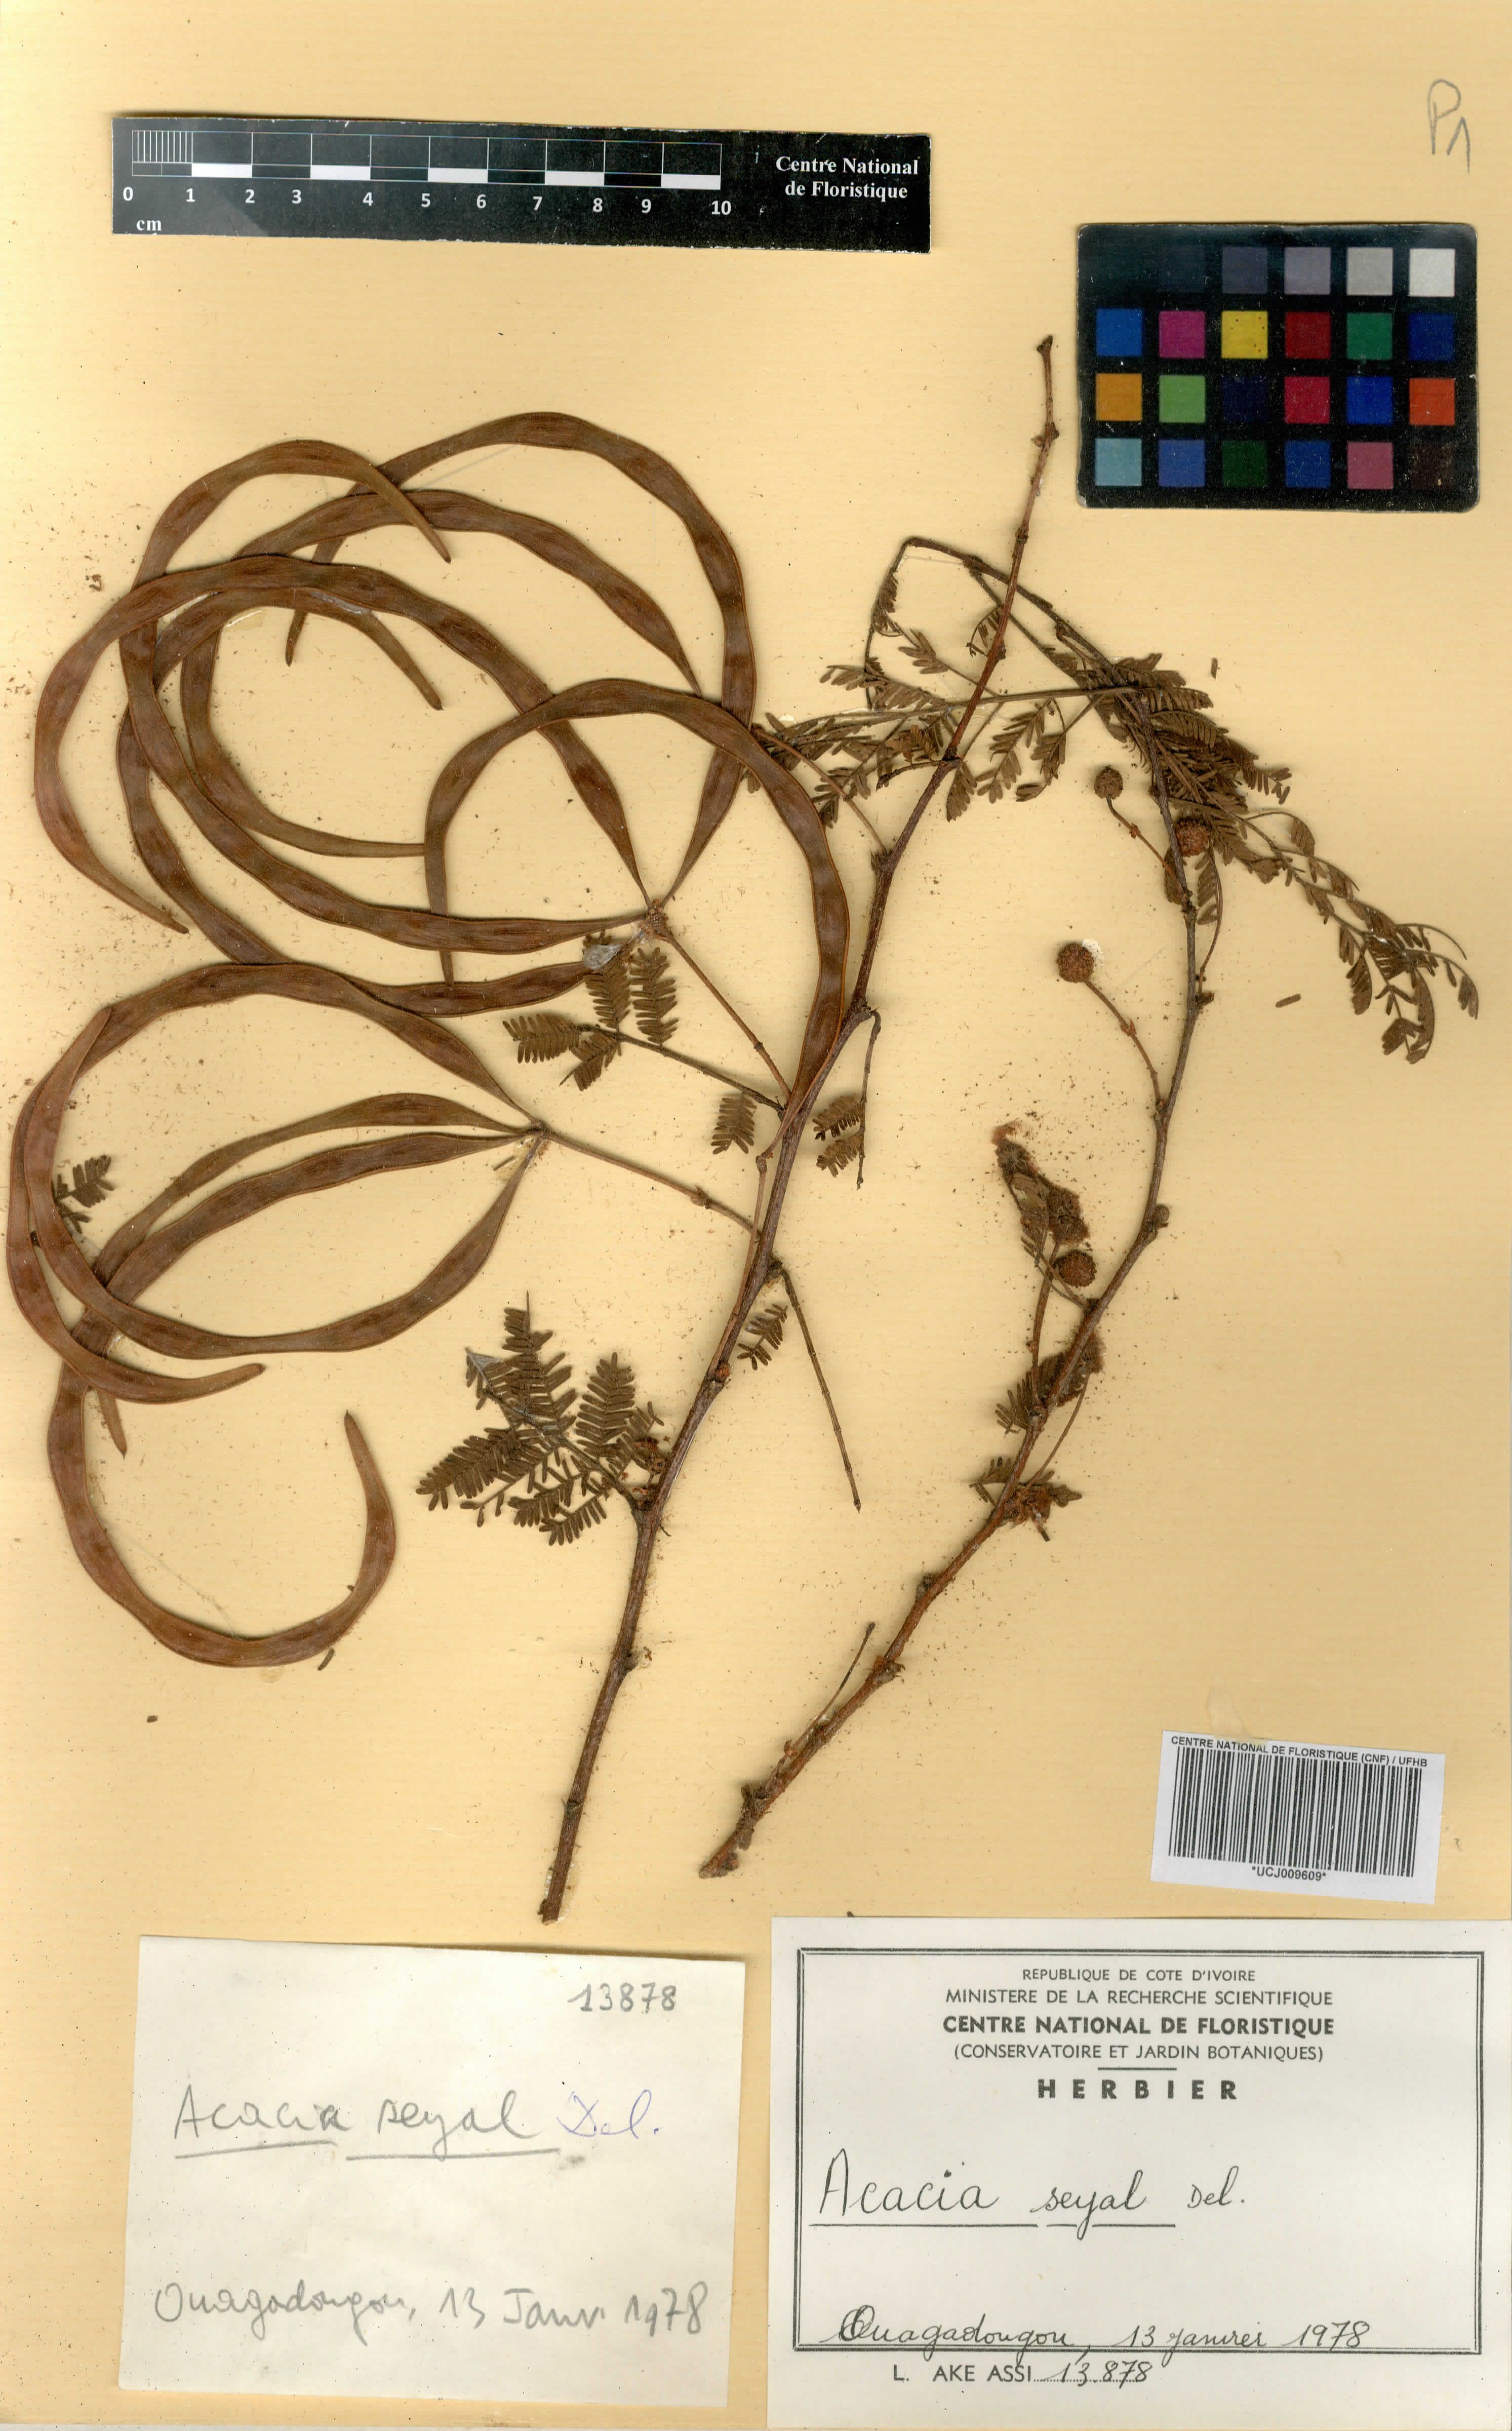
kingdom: Plantae
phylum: Tracheophyta
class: Magnoliopsida
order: Fabales
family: Fabaceae
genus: Acacia
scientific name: Acacia
